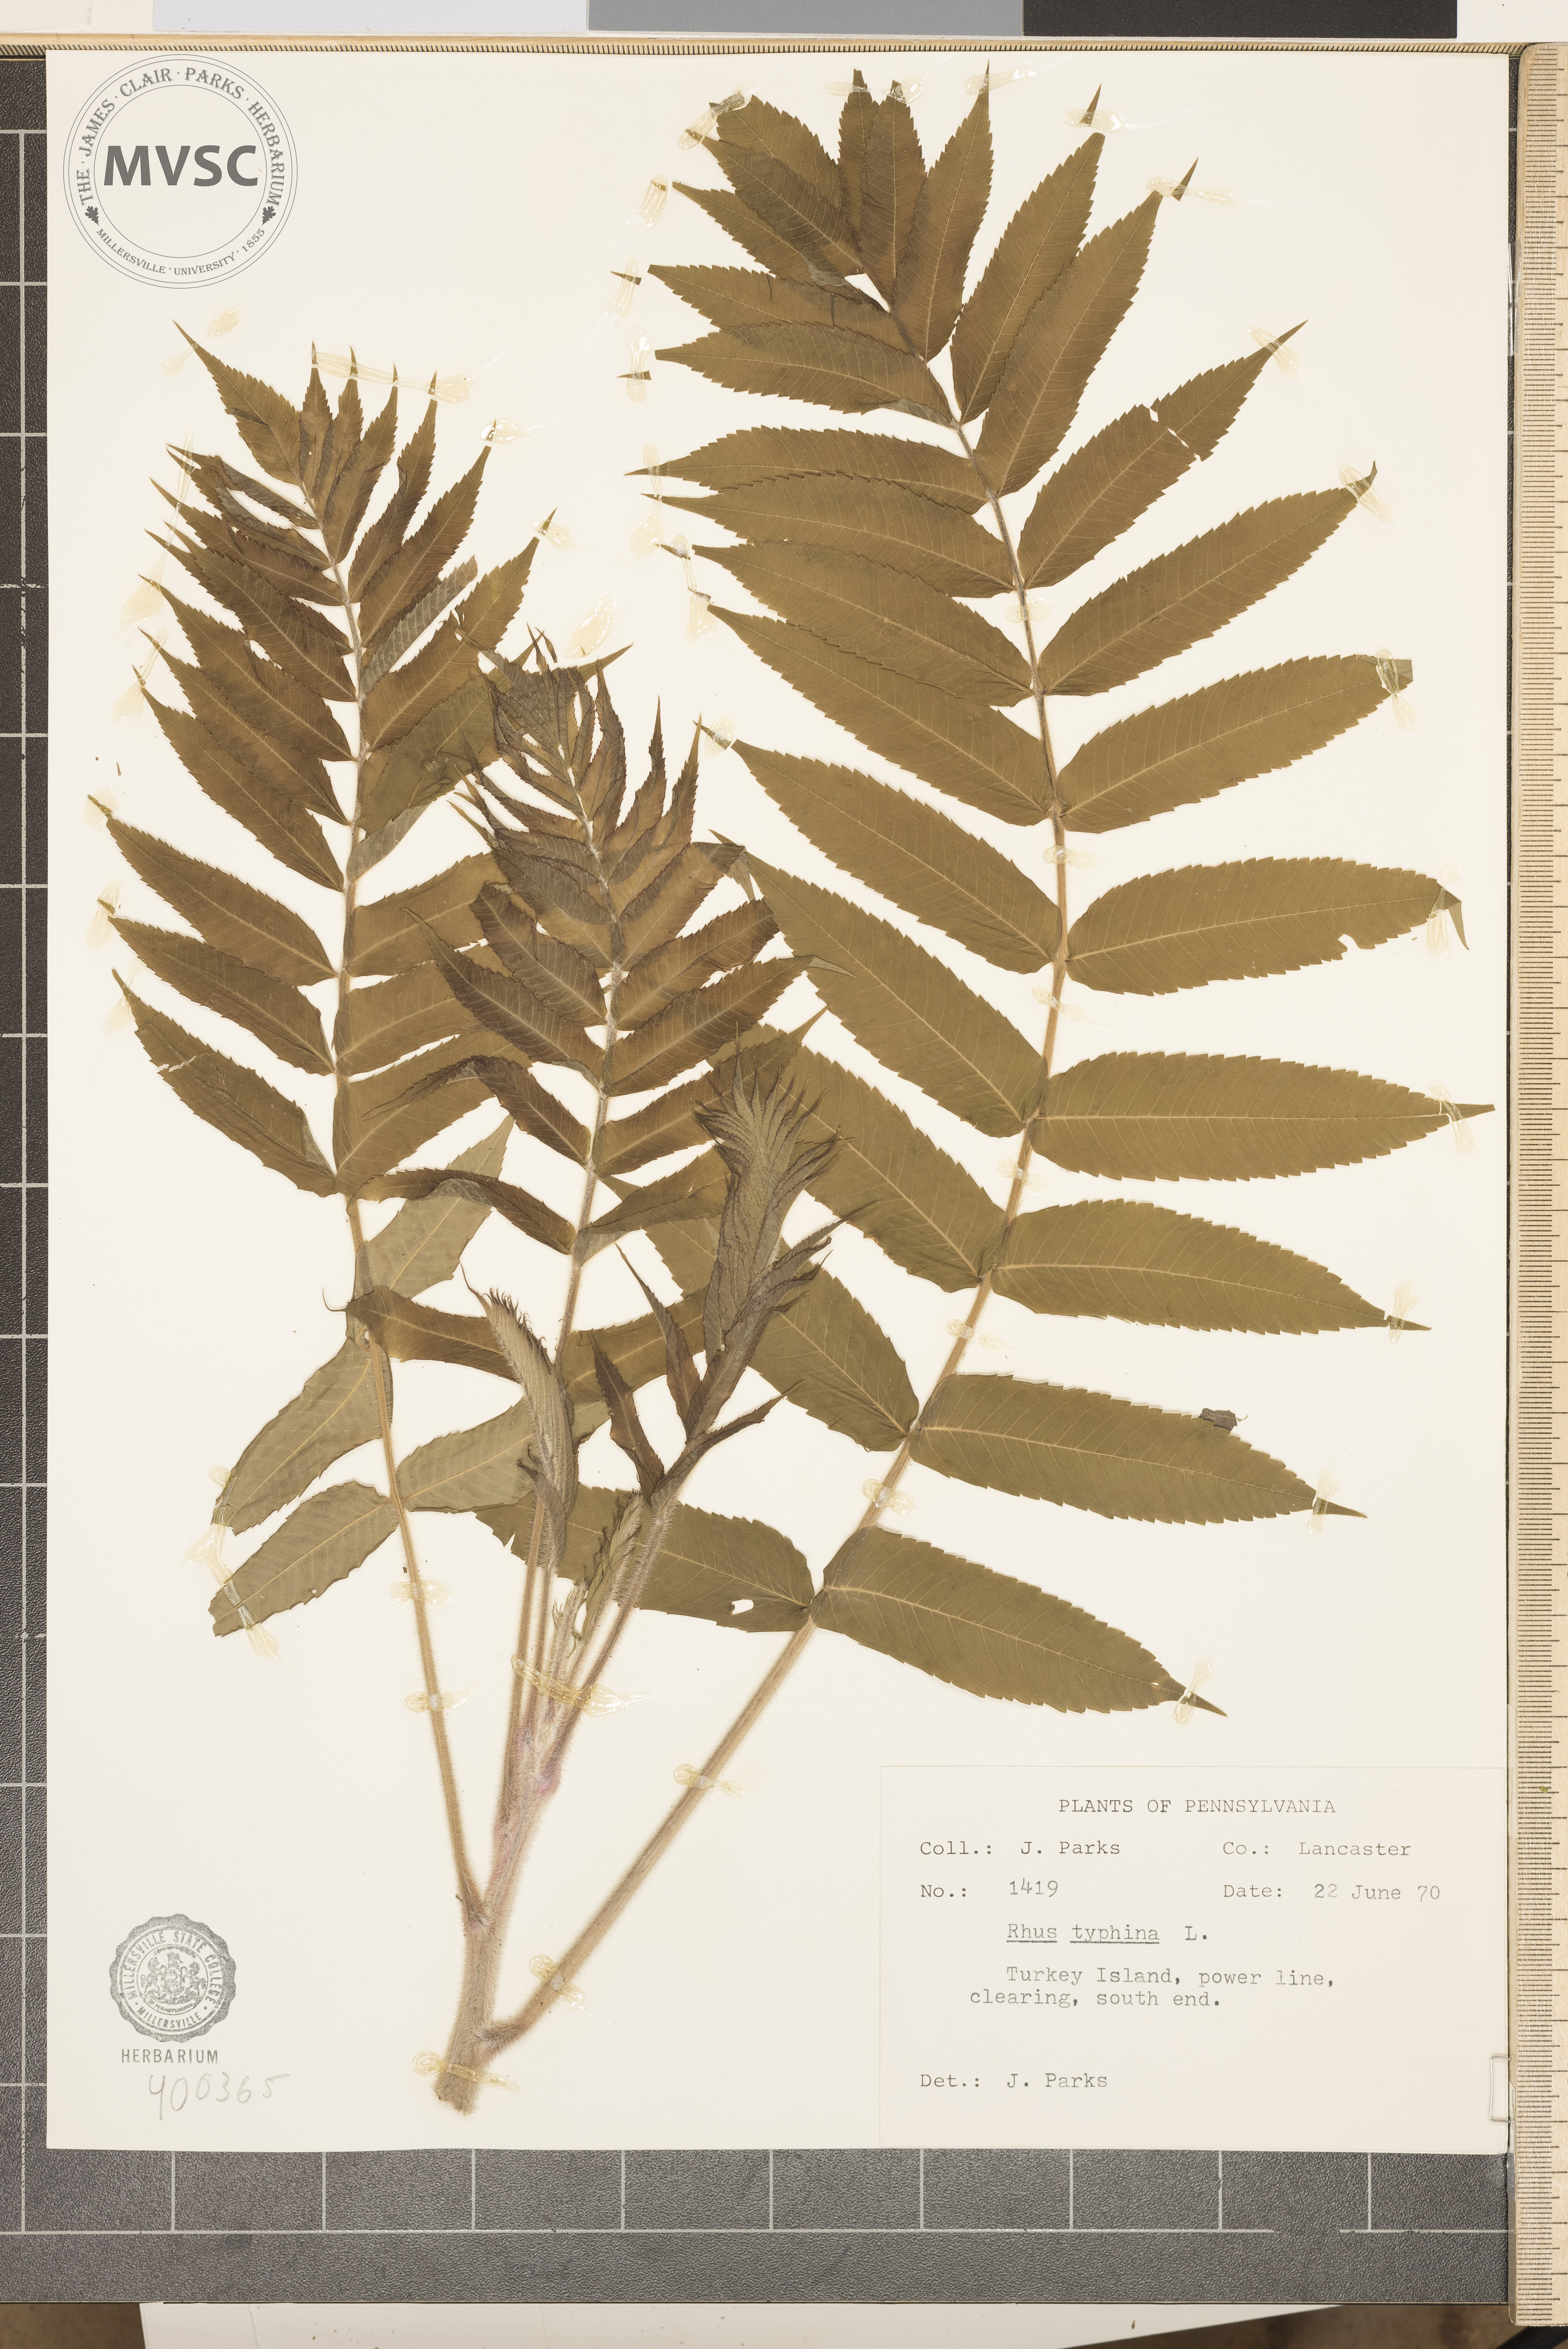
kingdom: Plantae
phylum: Tracheophyta
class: Magnoliopsida
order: Sapindales
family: Anacardiaceae
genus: Rhus
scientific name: Rhus typhina
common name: sumac
